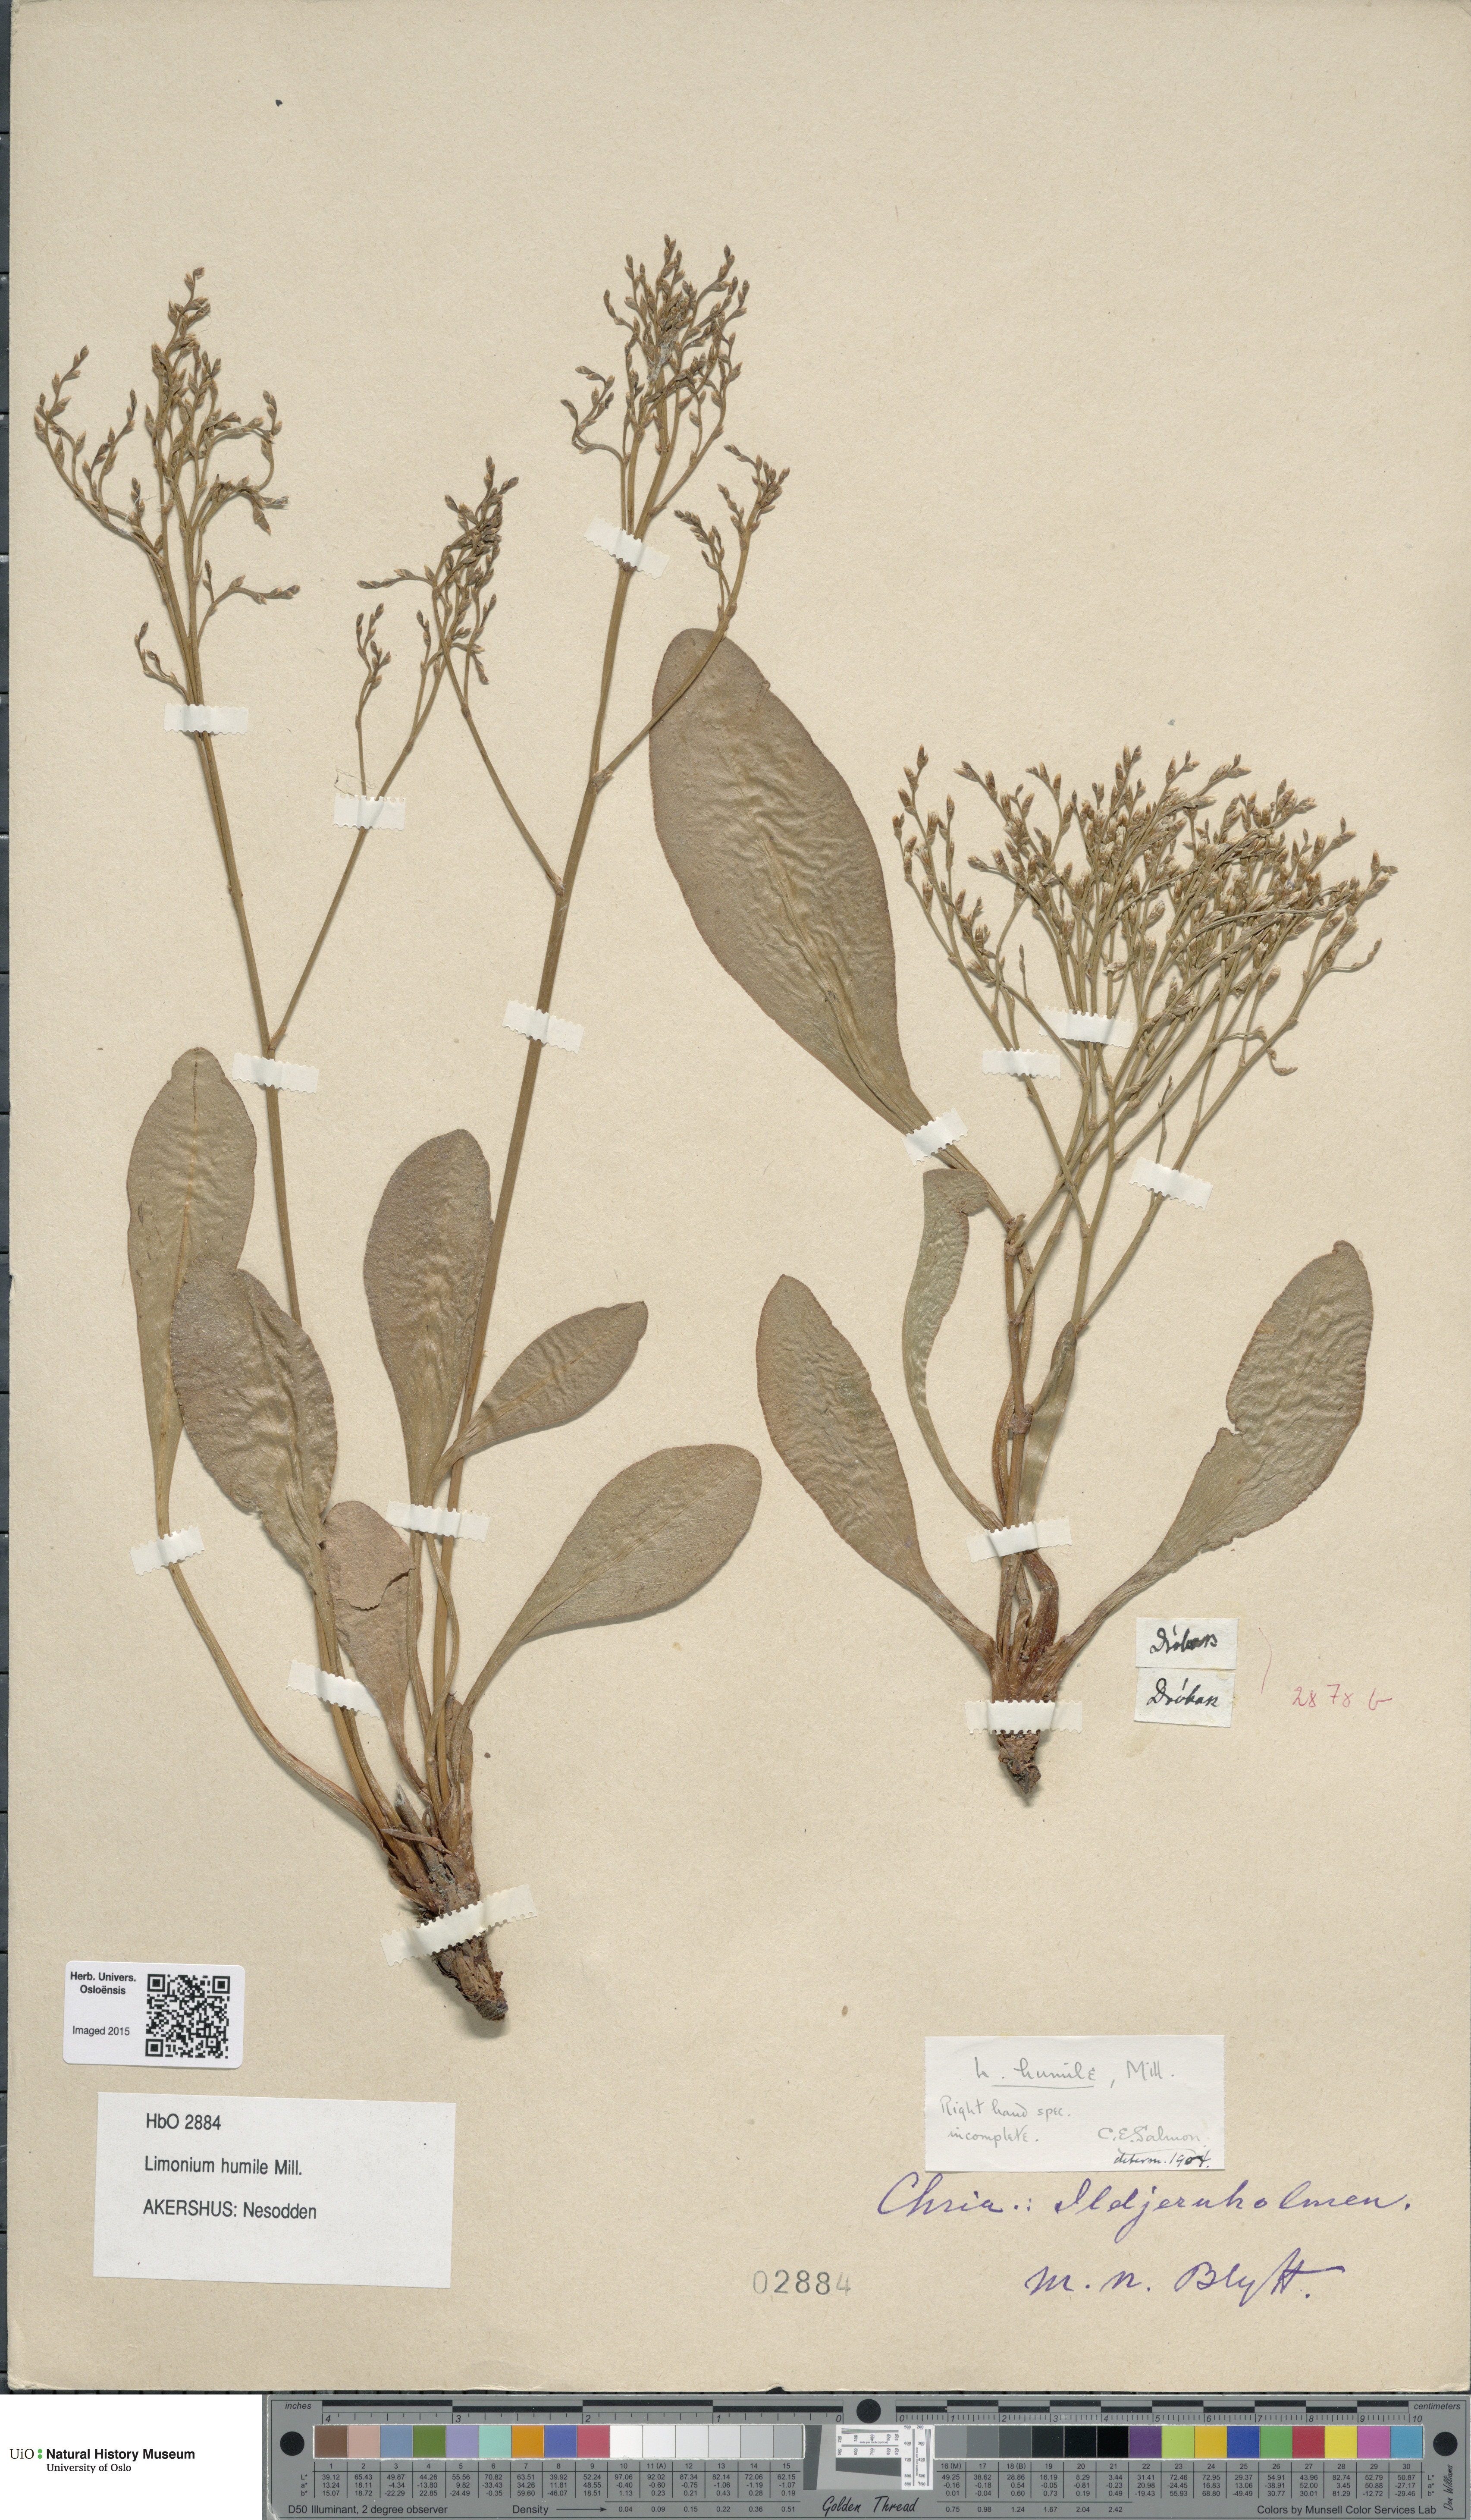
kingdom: Plantae
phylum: Tracheophyta
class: Magnoliopsida
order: Caryophyllales
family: Plumbaginaceae
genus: Limonium
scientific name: Limonium humile
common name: Lax-flowered sea-lavender
